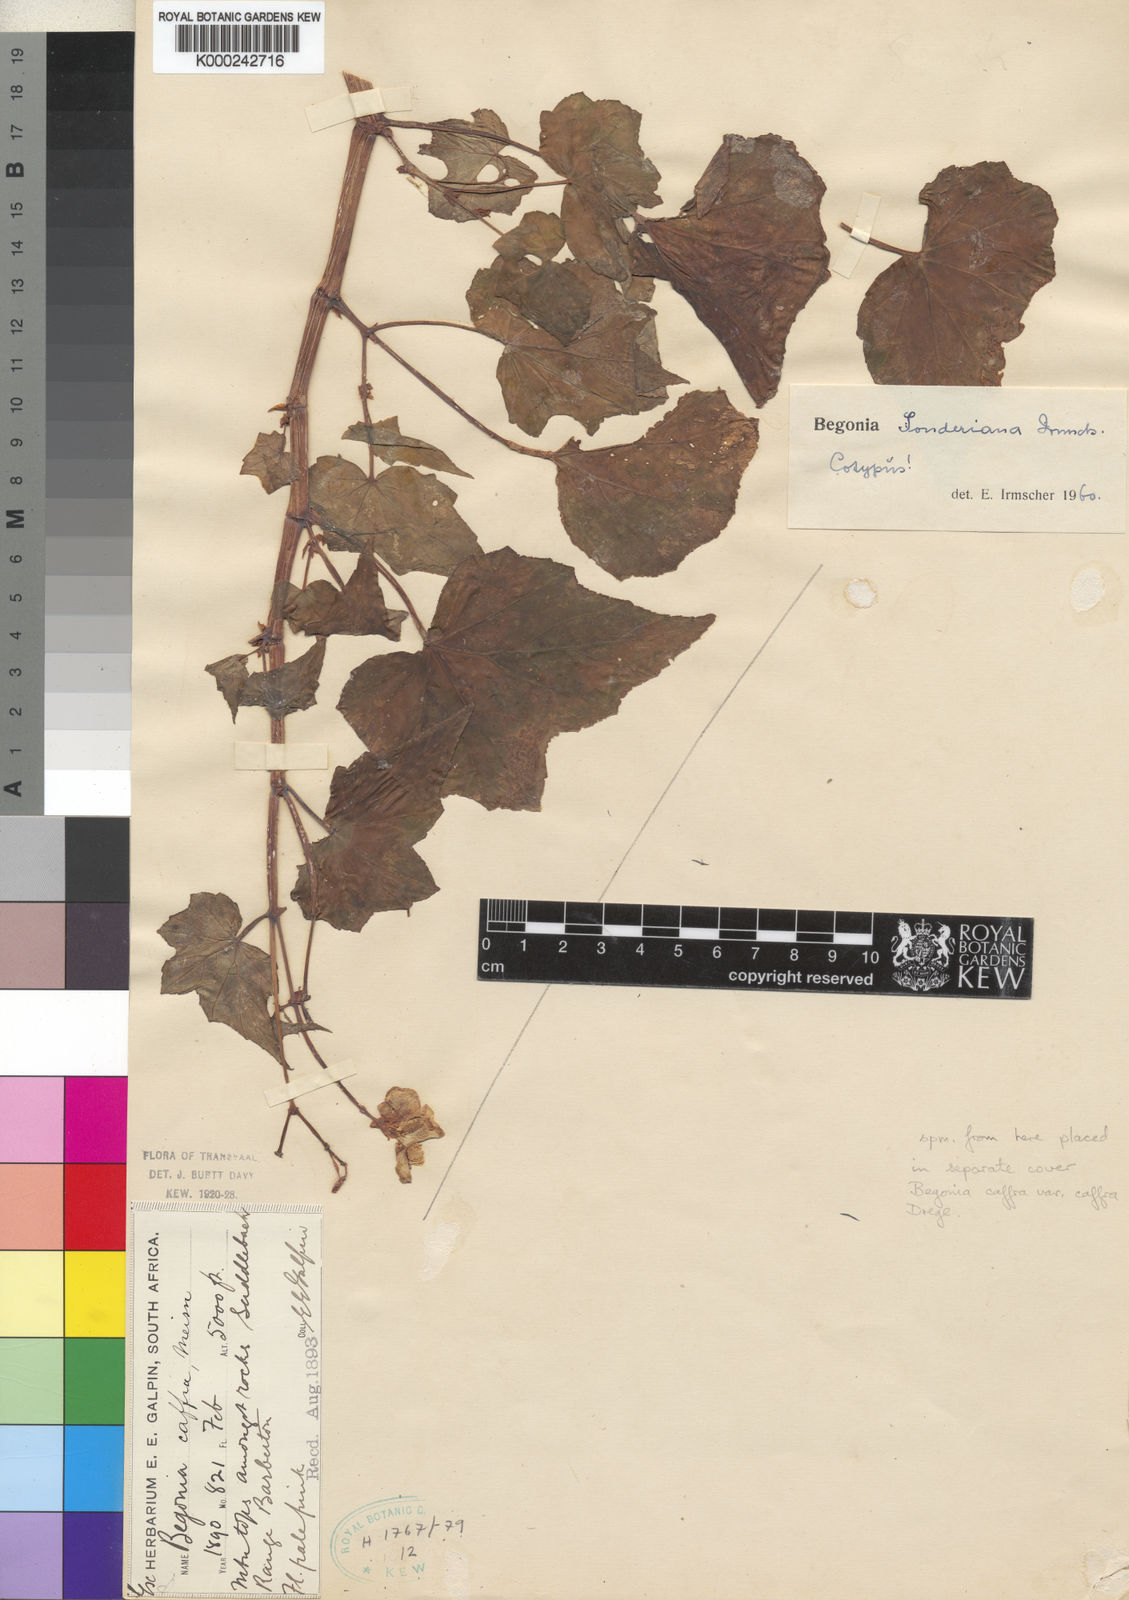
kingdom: Plantae
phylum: Tracheophyta
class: Magnoliopsida
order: Cucurbitales
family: Begoniaceae
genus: Begonia
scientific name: Begonia sonderiana
